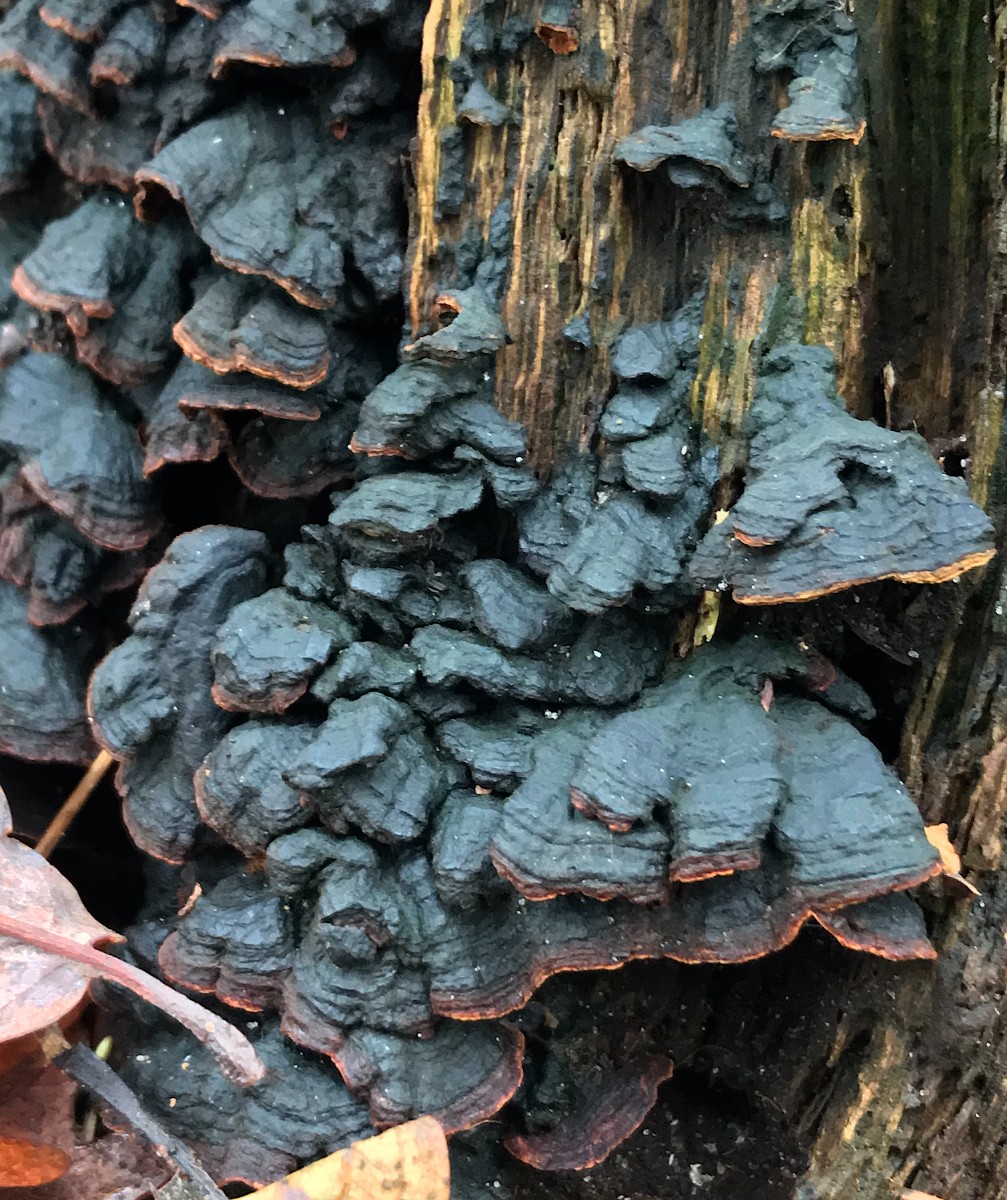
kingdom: Fungi
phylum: Basidiomycota
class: Agaricomycetes
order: Hymenochaetales
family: Hymenochaetaceae
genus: Hymenochaete
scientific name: Hymenochaete rubiginosa
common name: stiv ruslædersvamp
